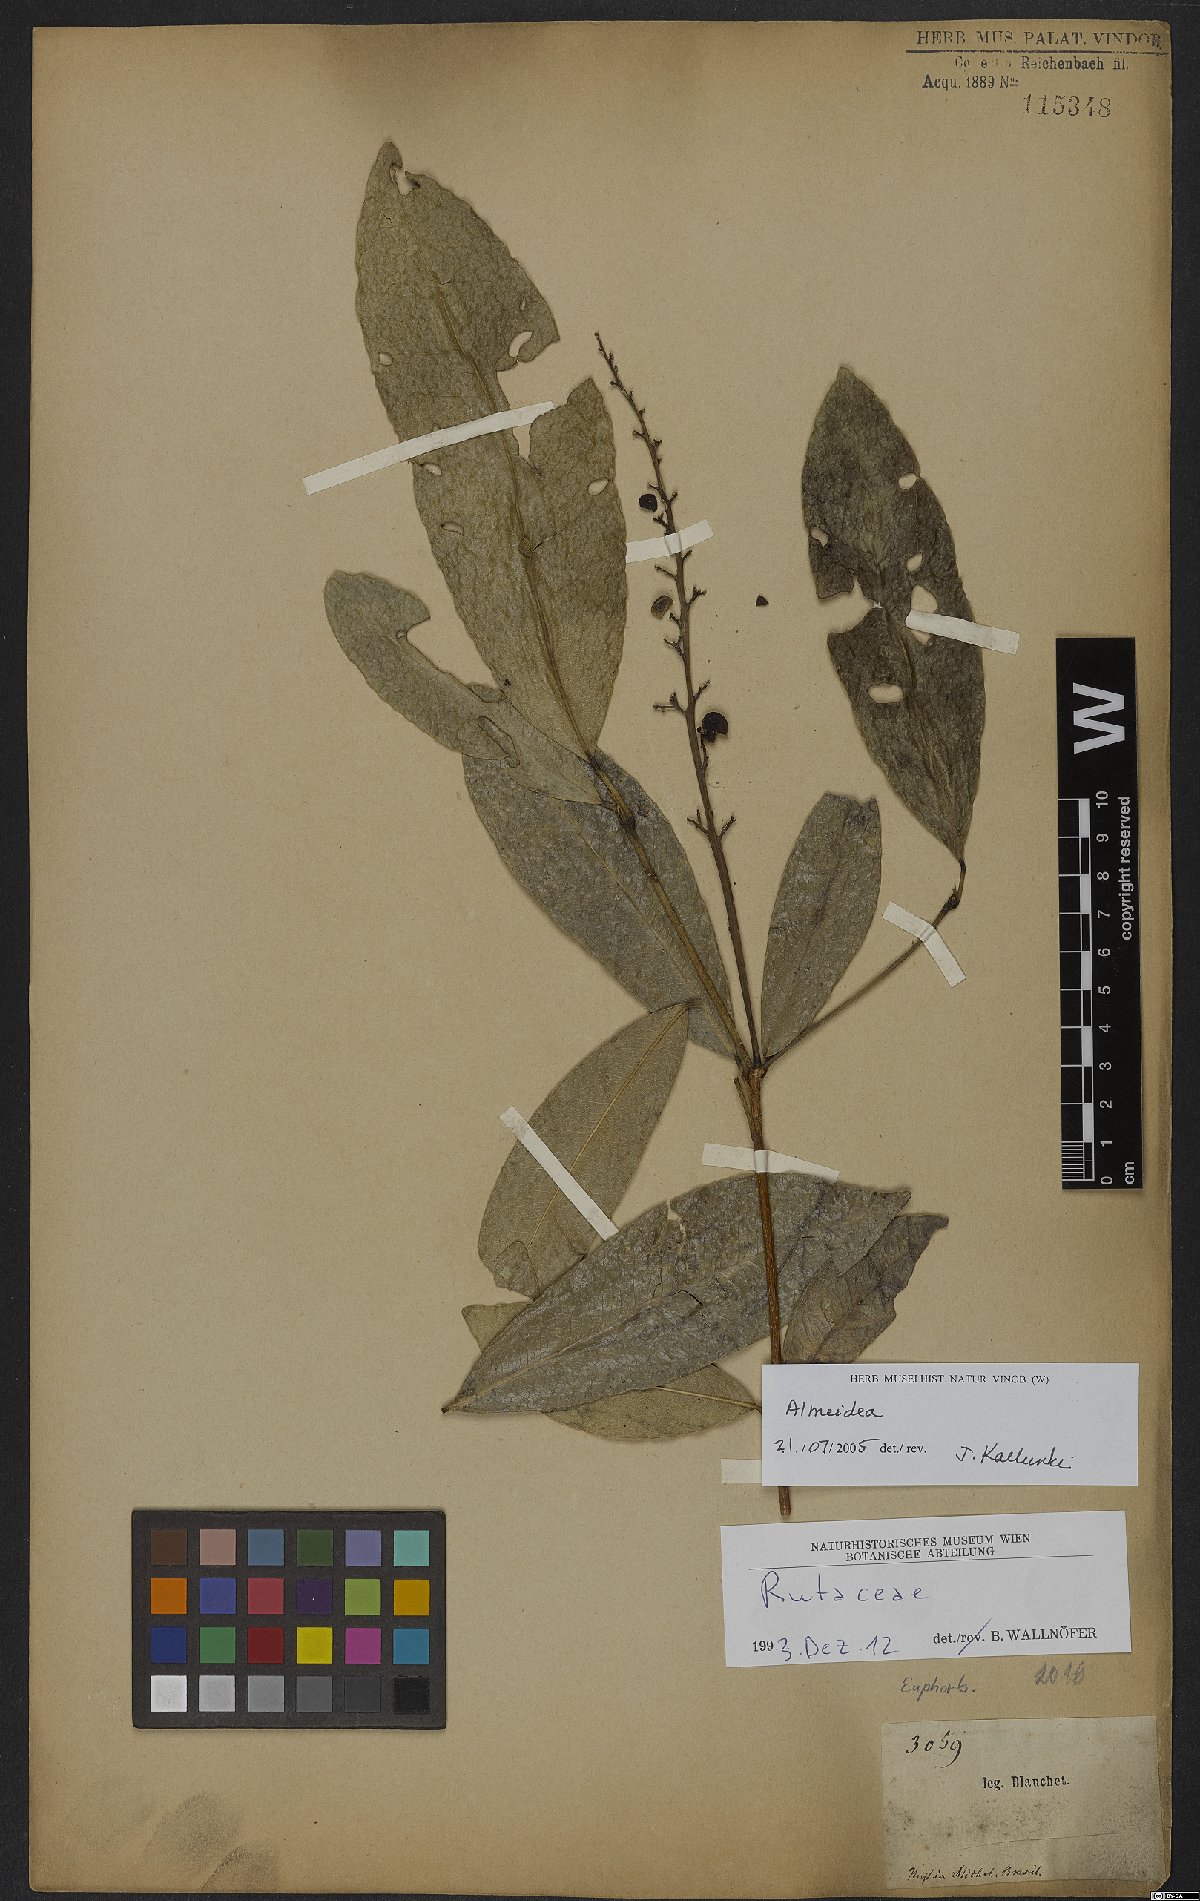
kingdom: Plantae
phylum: Tracheophyta
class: Magnoliopsida
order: Sapindales
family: Rutaceae
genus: Conchocarpus
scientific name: Conchocarpus
